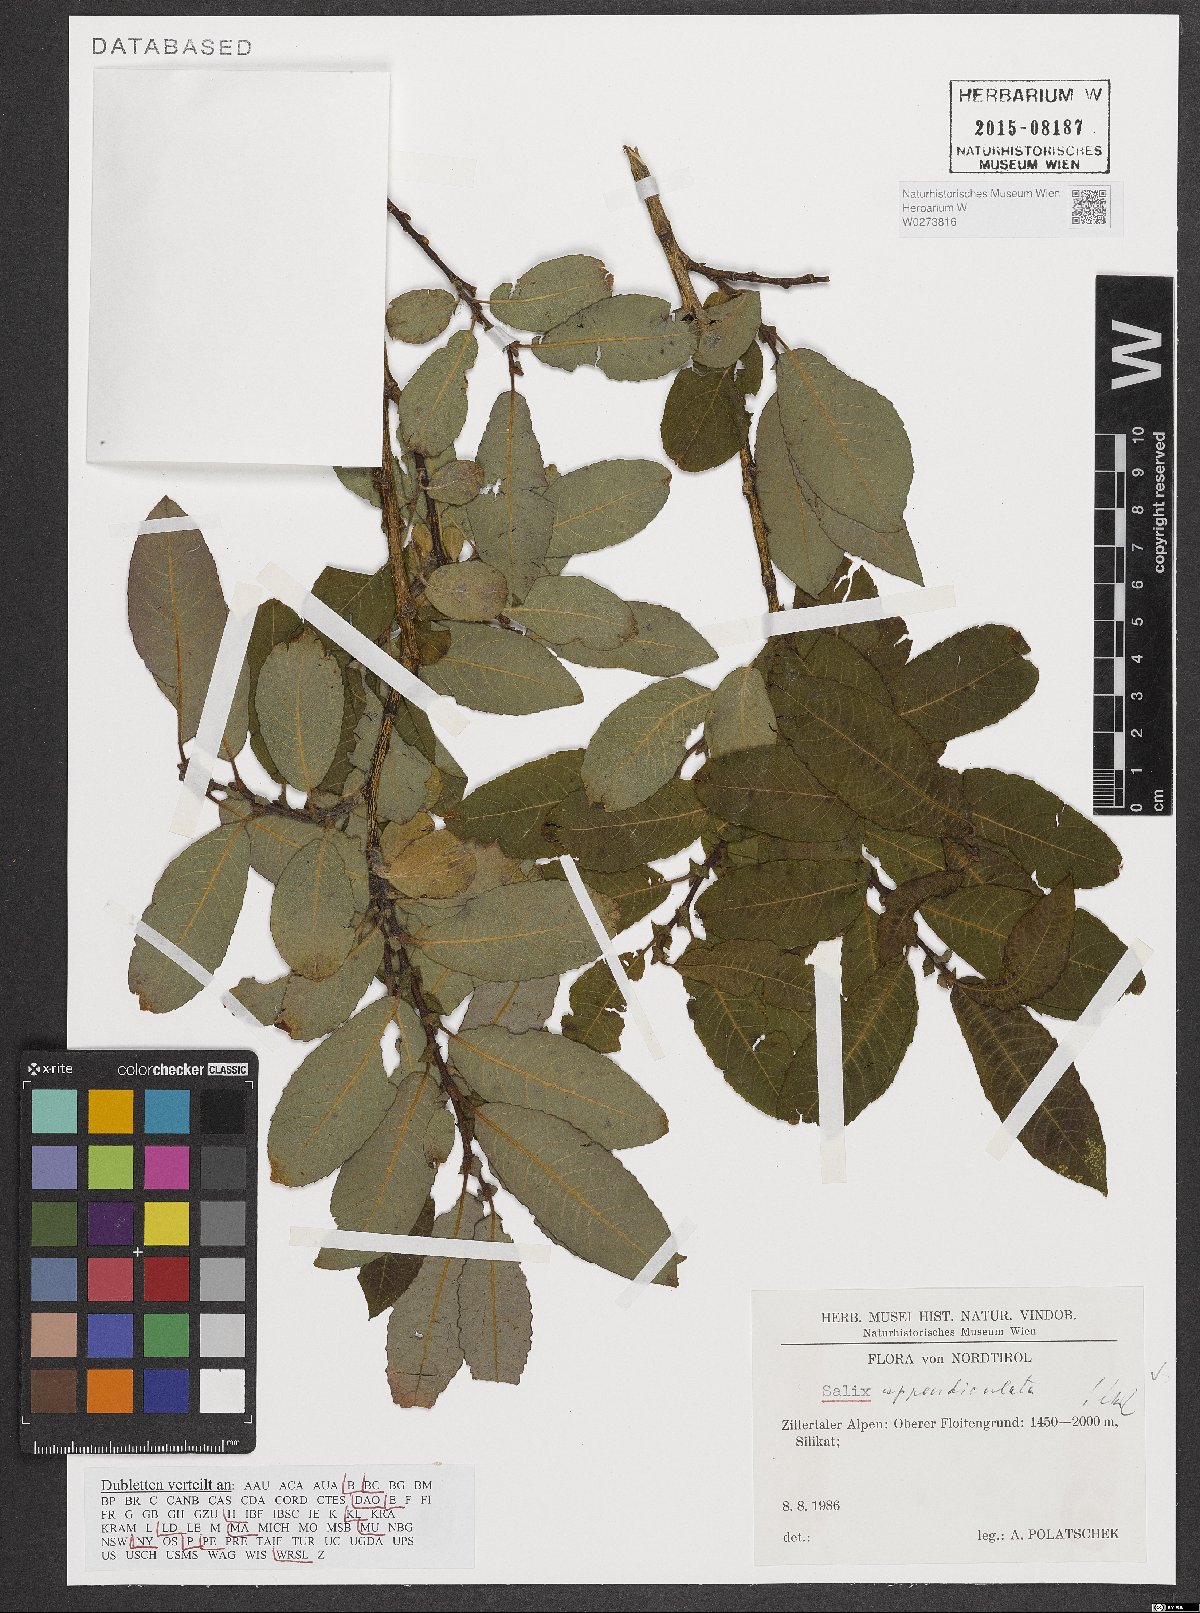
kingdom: Plantae
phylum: Tracheophyta
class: Magnoliopsida
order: Malpighiales
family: Salicaceae
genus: Salix
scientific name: Salix appendiculata
